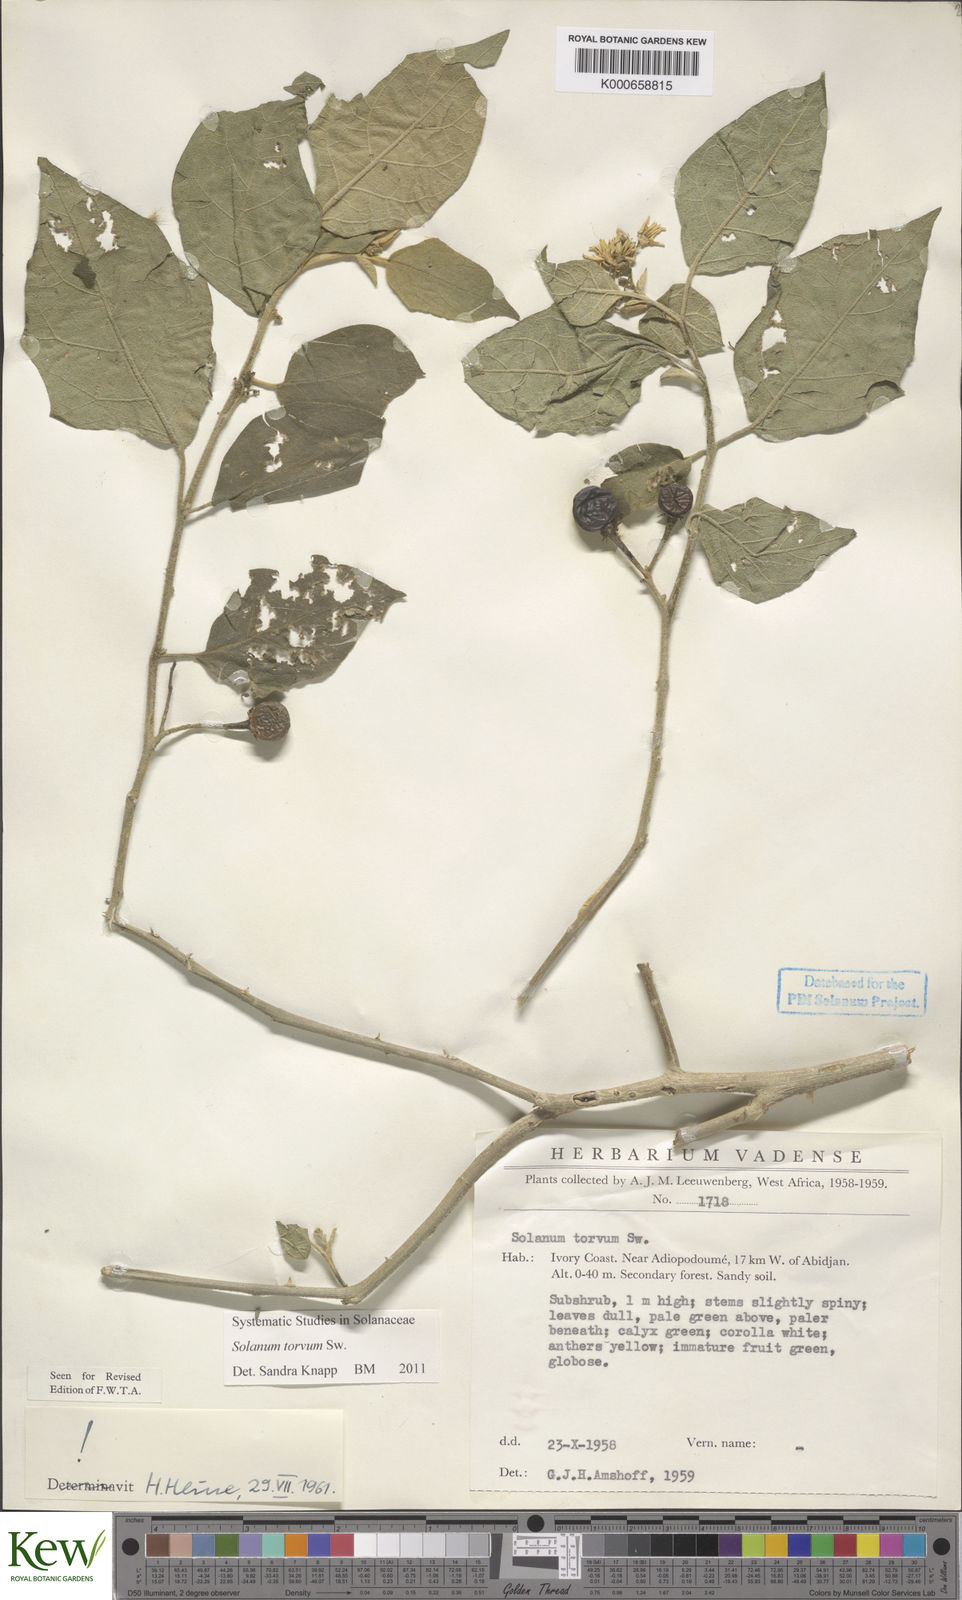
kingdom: Plantae
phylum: Tracheophyta
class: Magnoliopsida
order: Solanales
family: Solanaceae
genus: Solanum
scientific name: Solanum torvum
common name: Turkey berry
